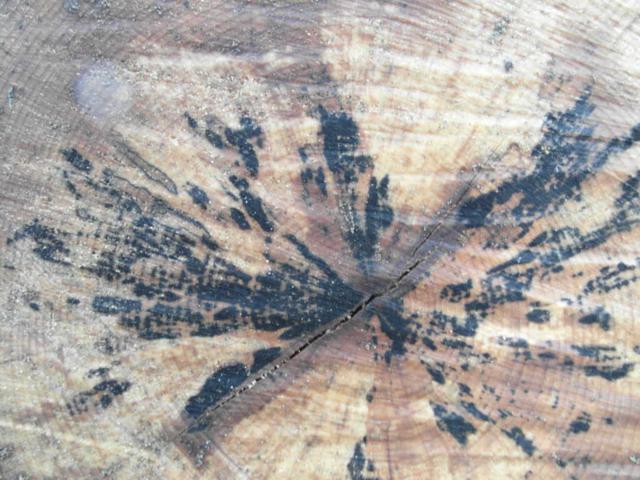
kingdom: Fungi
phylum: Ascomycota
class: Leotiomycetes
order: Helotiales
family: Helotiaceae
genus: Bispora
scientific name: Bispora pallescens
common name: måtte-snitskive
